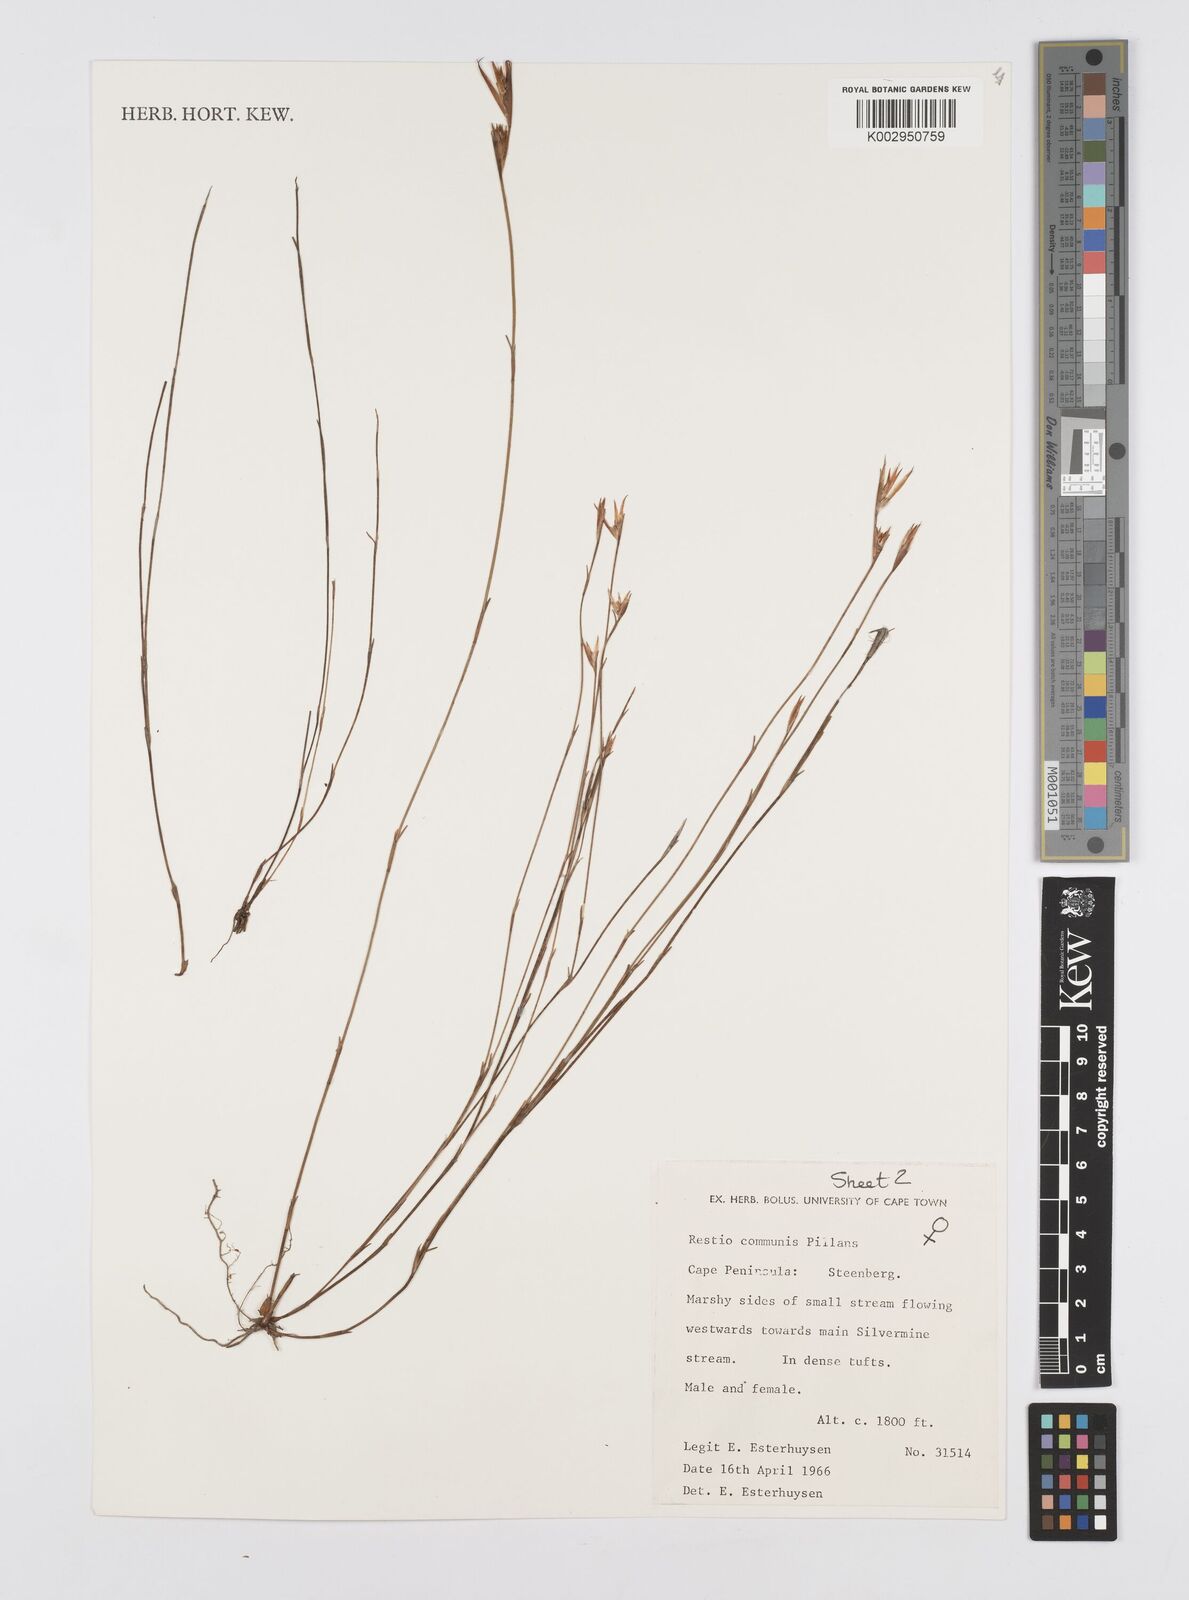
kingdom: Plantae
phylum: Tracheophyta
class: Liliopsida
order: Poales
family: Restionaceae
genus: Restio
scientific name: Restio communis
